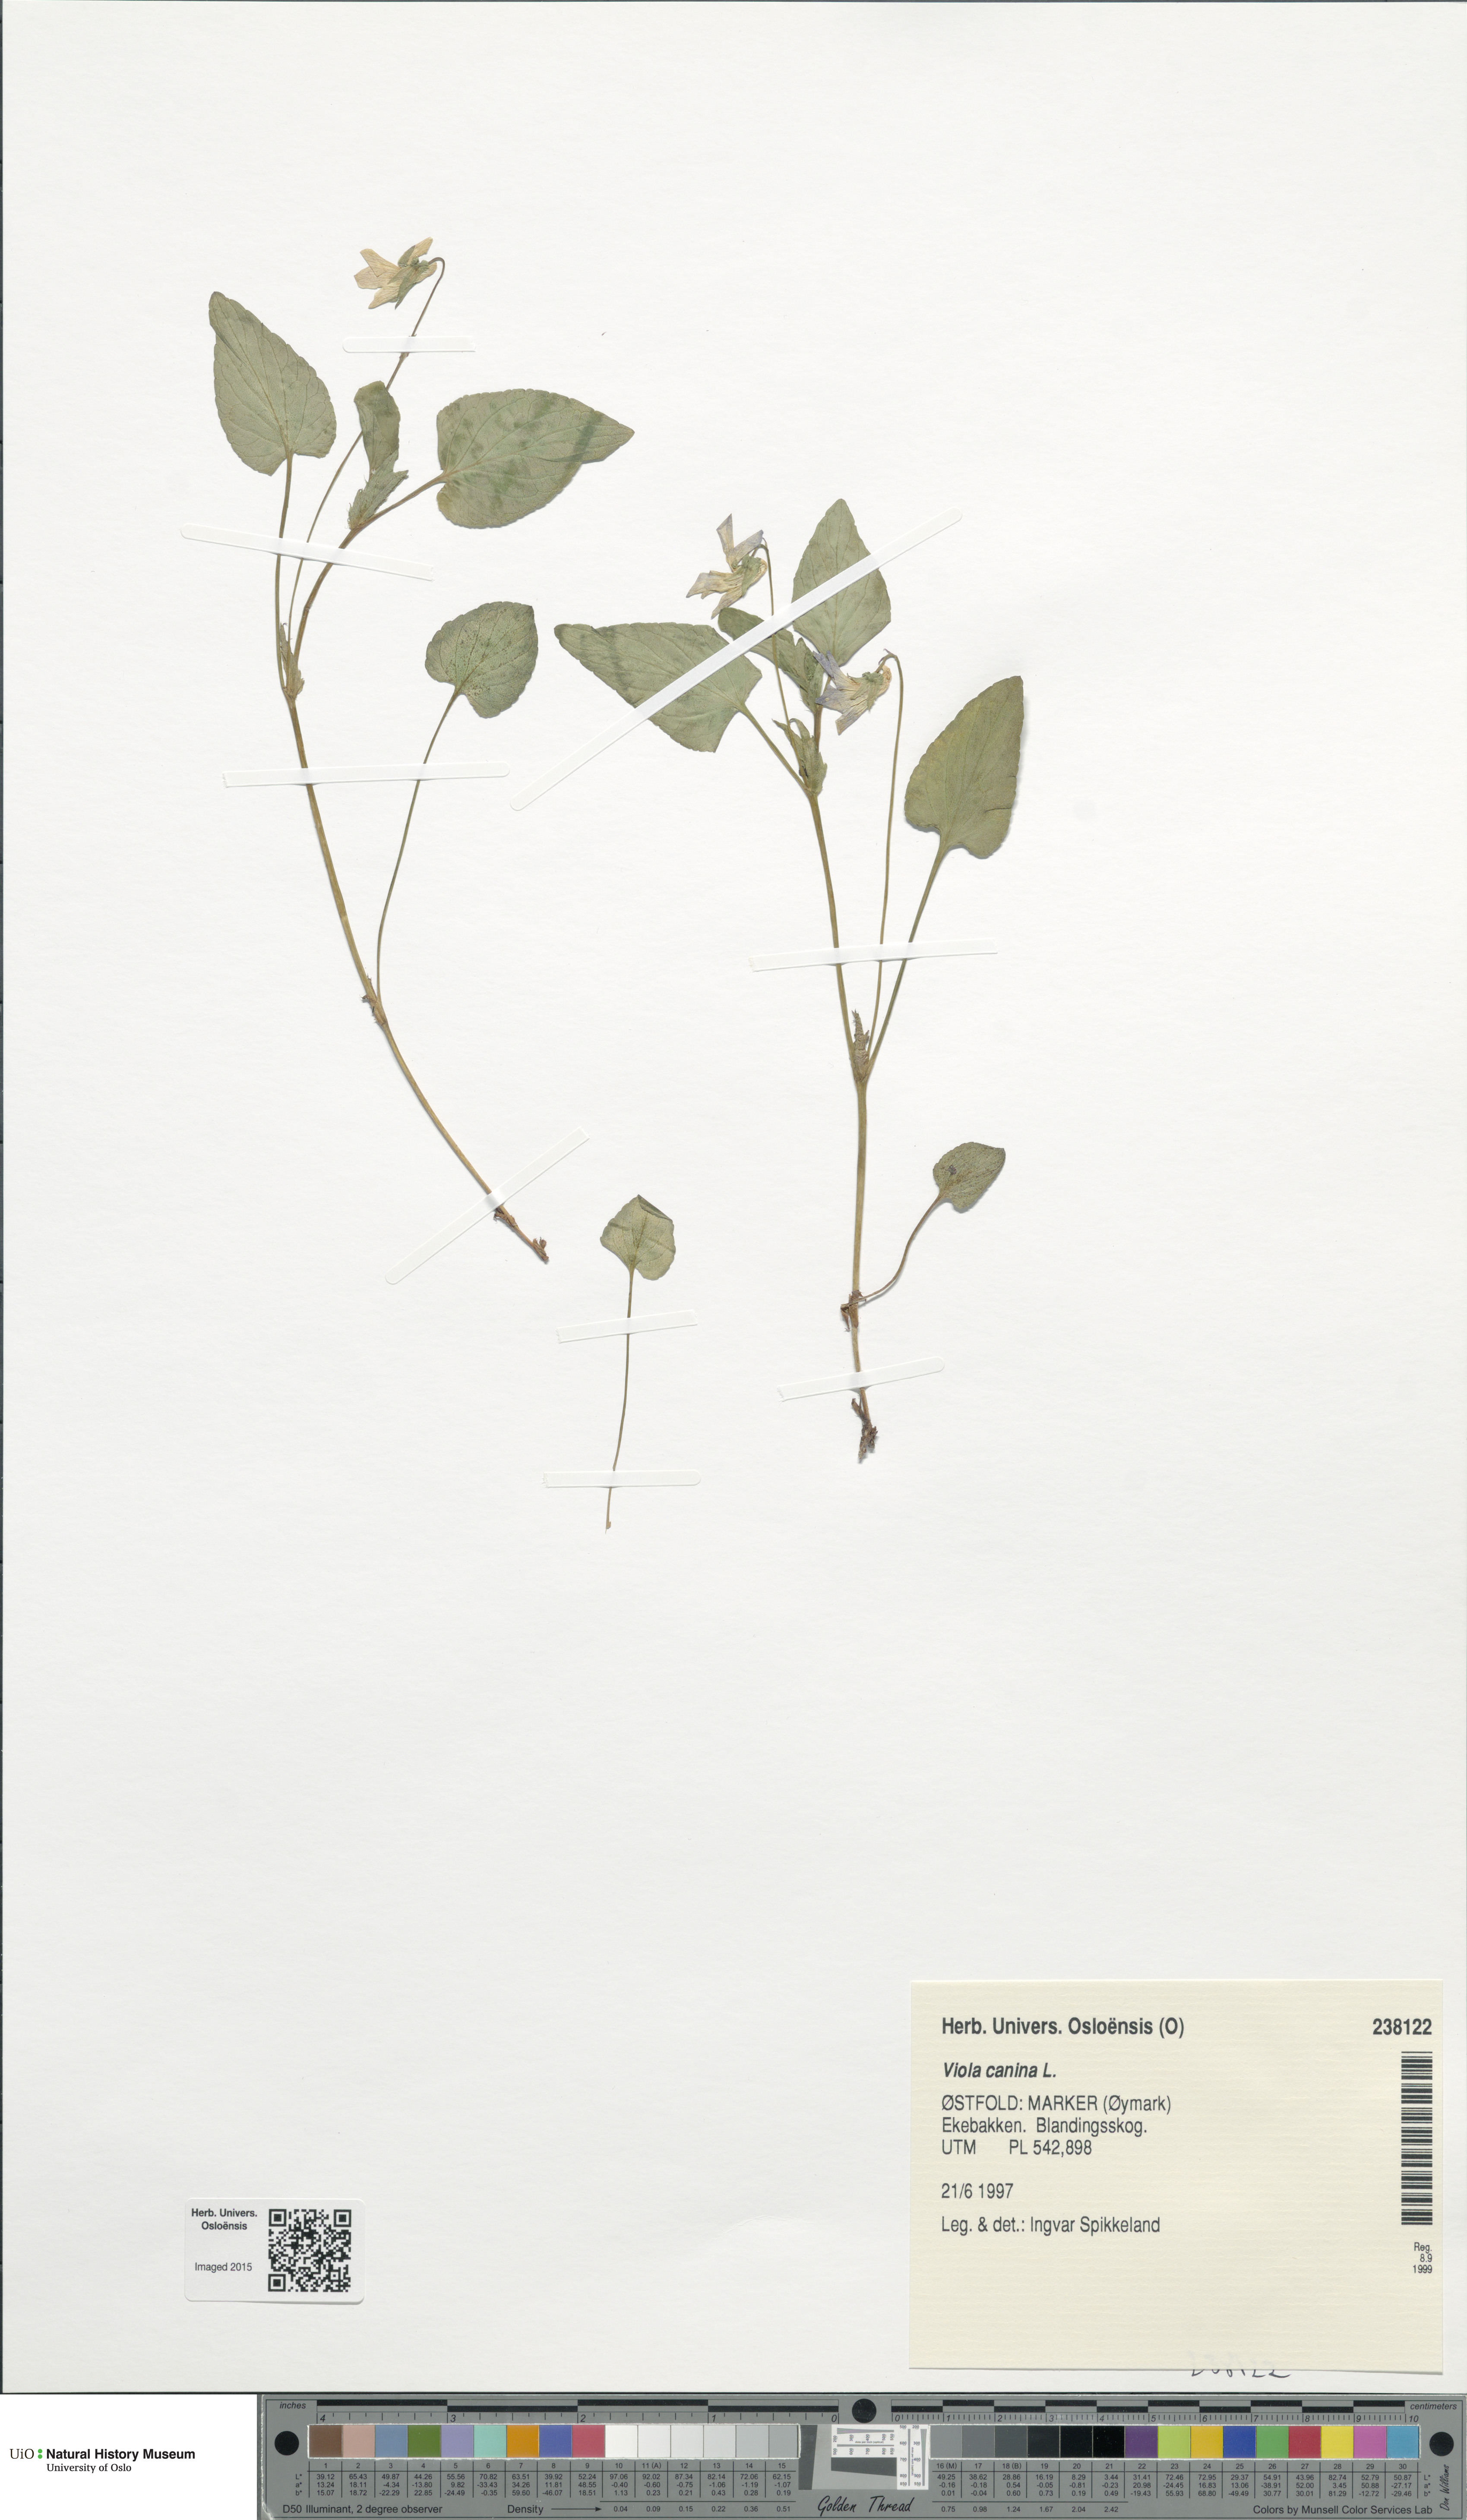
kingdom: Plantae
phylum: Tracheophyta
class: Magnoliopsida
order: Malpighiales
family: Violaceae
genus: Viola
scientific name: Viola canina
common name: Heath dog-violet
